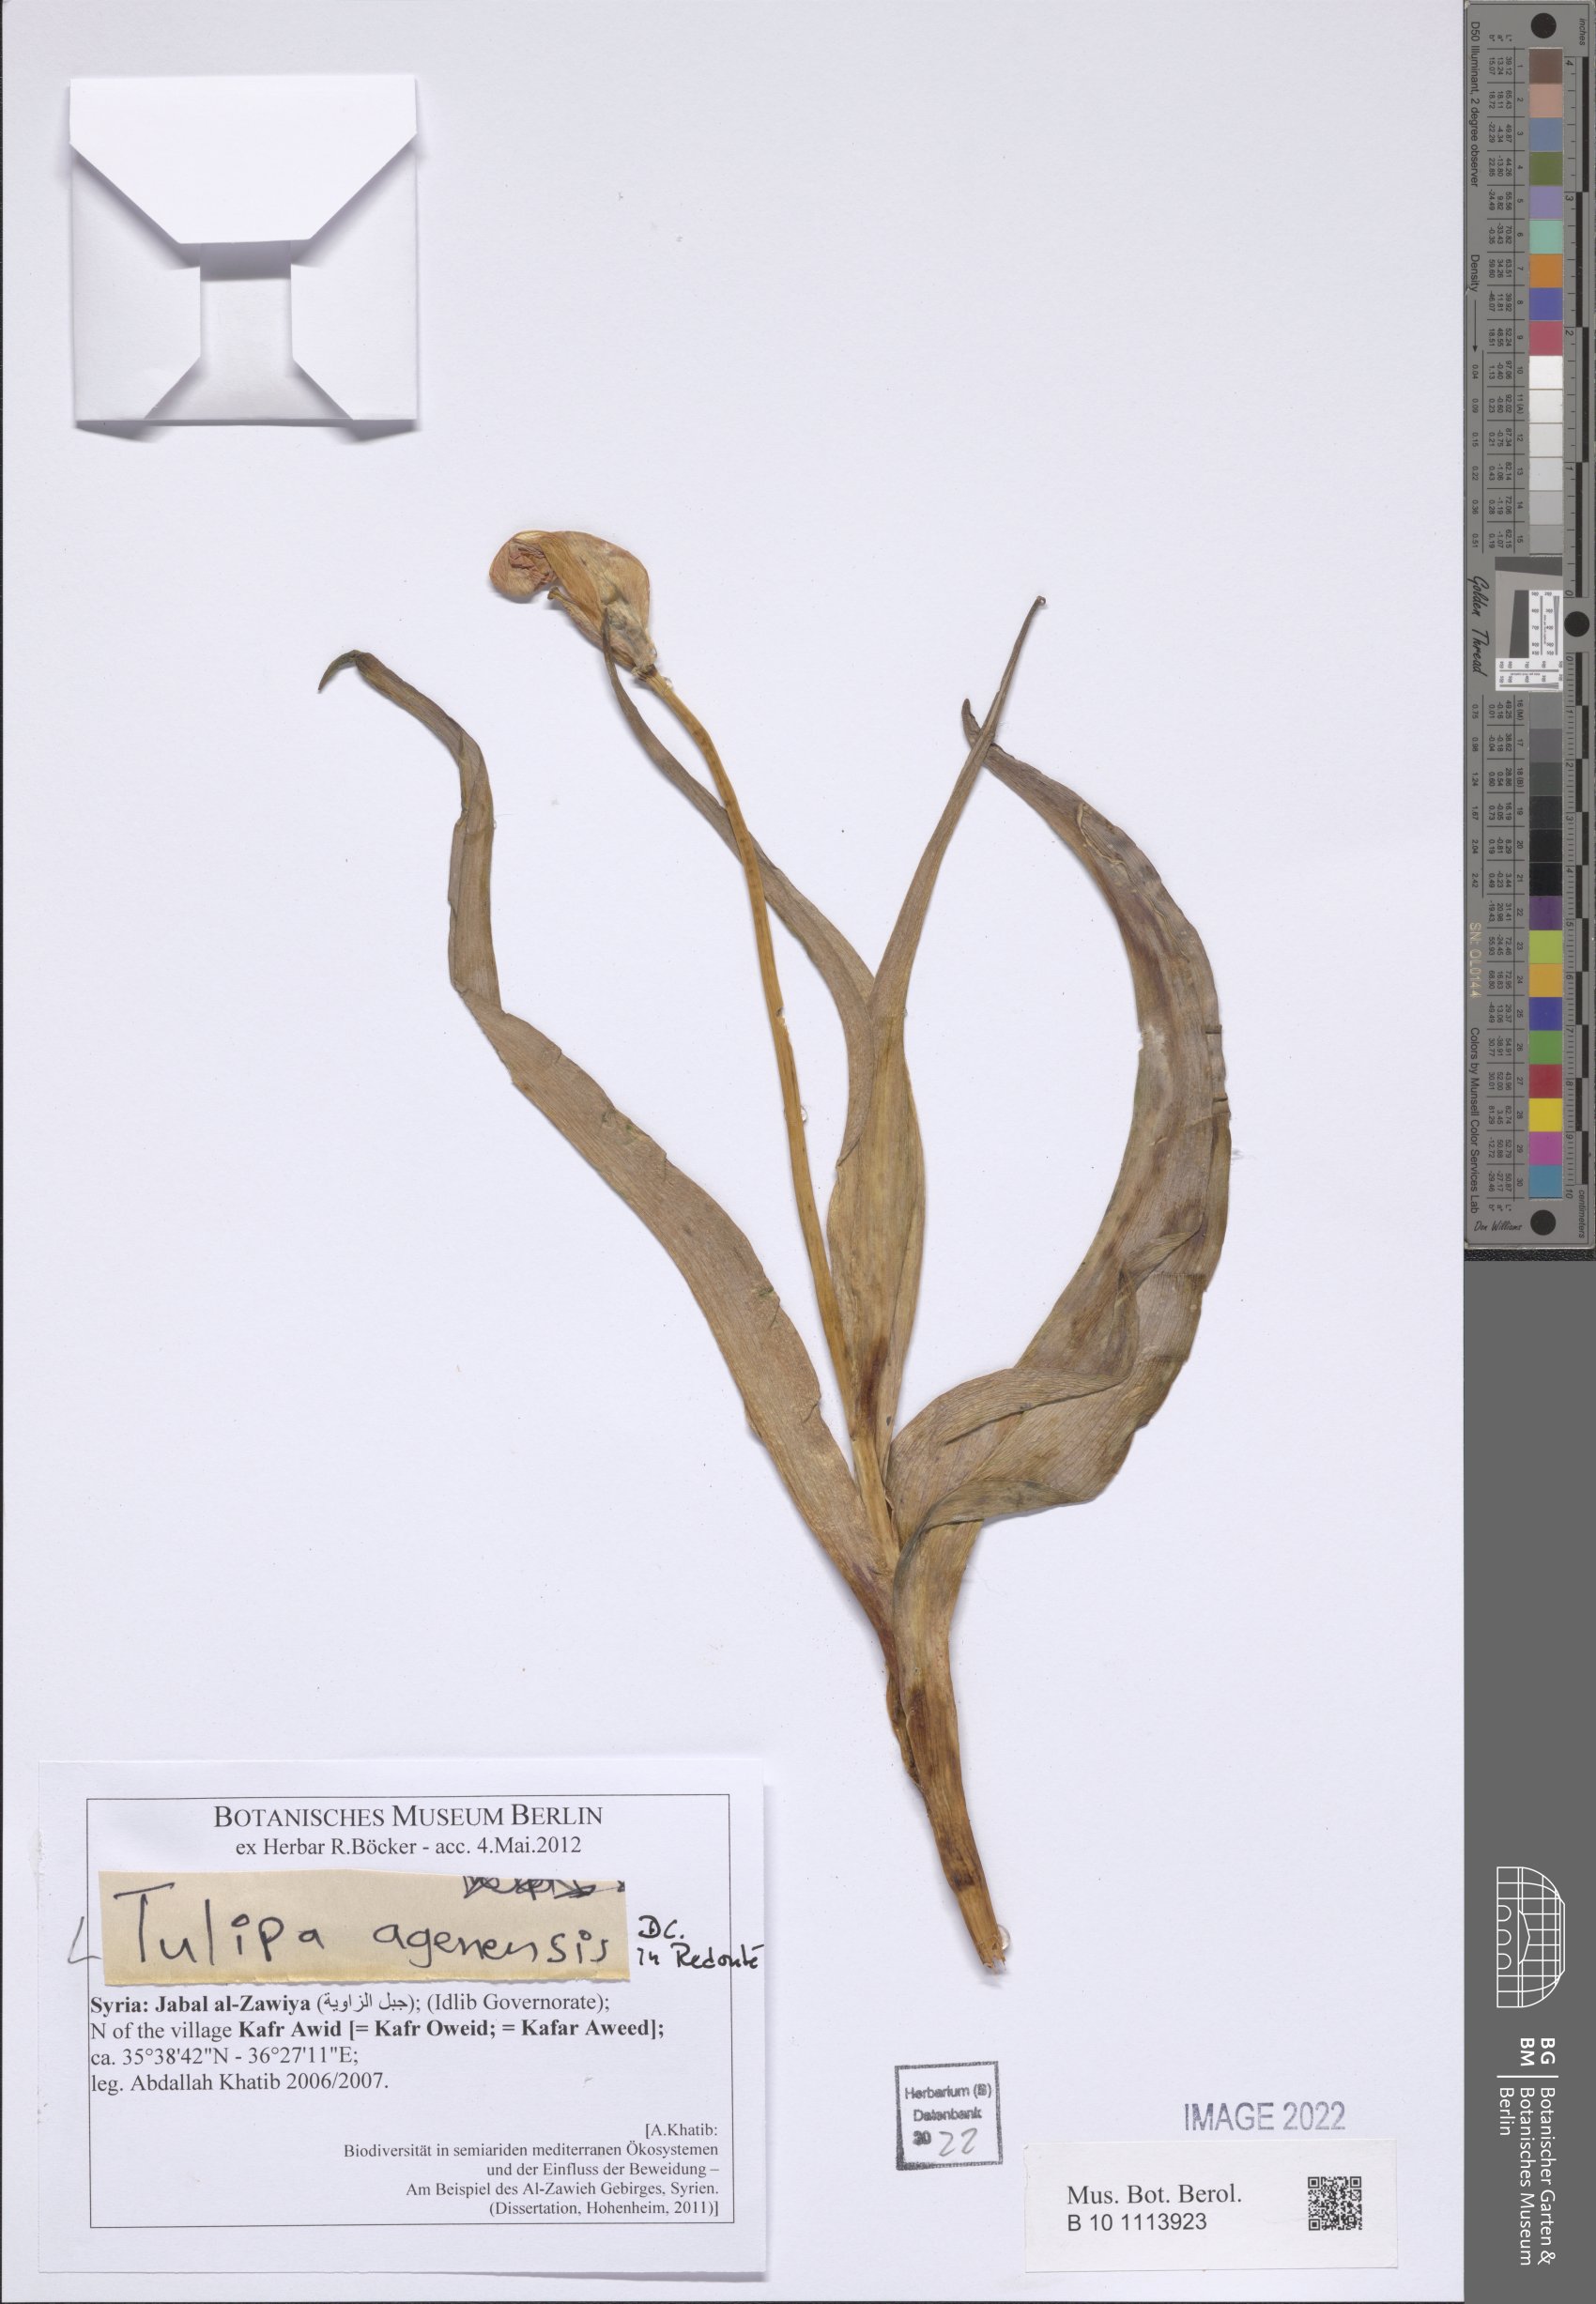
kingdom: Plantae
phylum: Tracheophyta
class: Liliopsida
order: Liliales
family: Liliaceae
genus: Tulipa
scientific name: Tulipa agenensis
